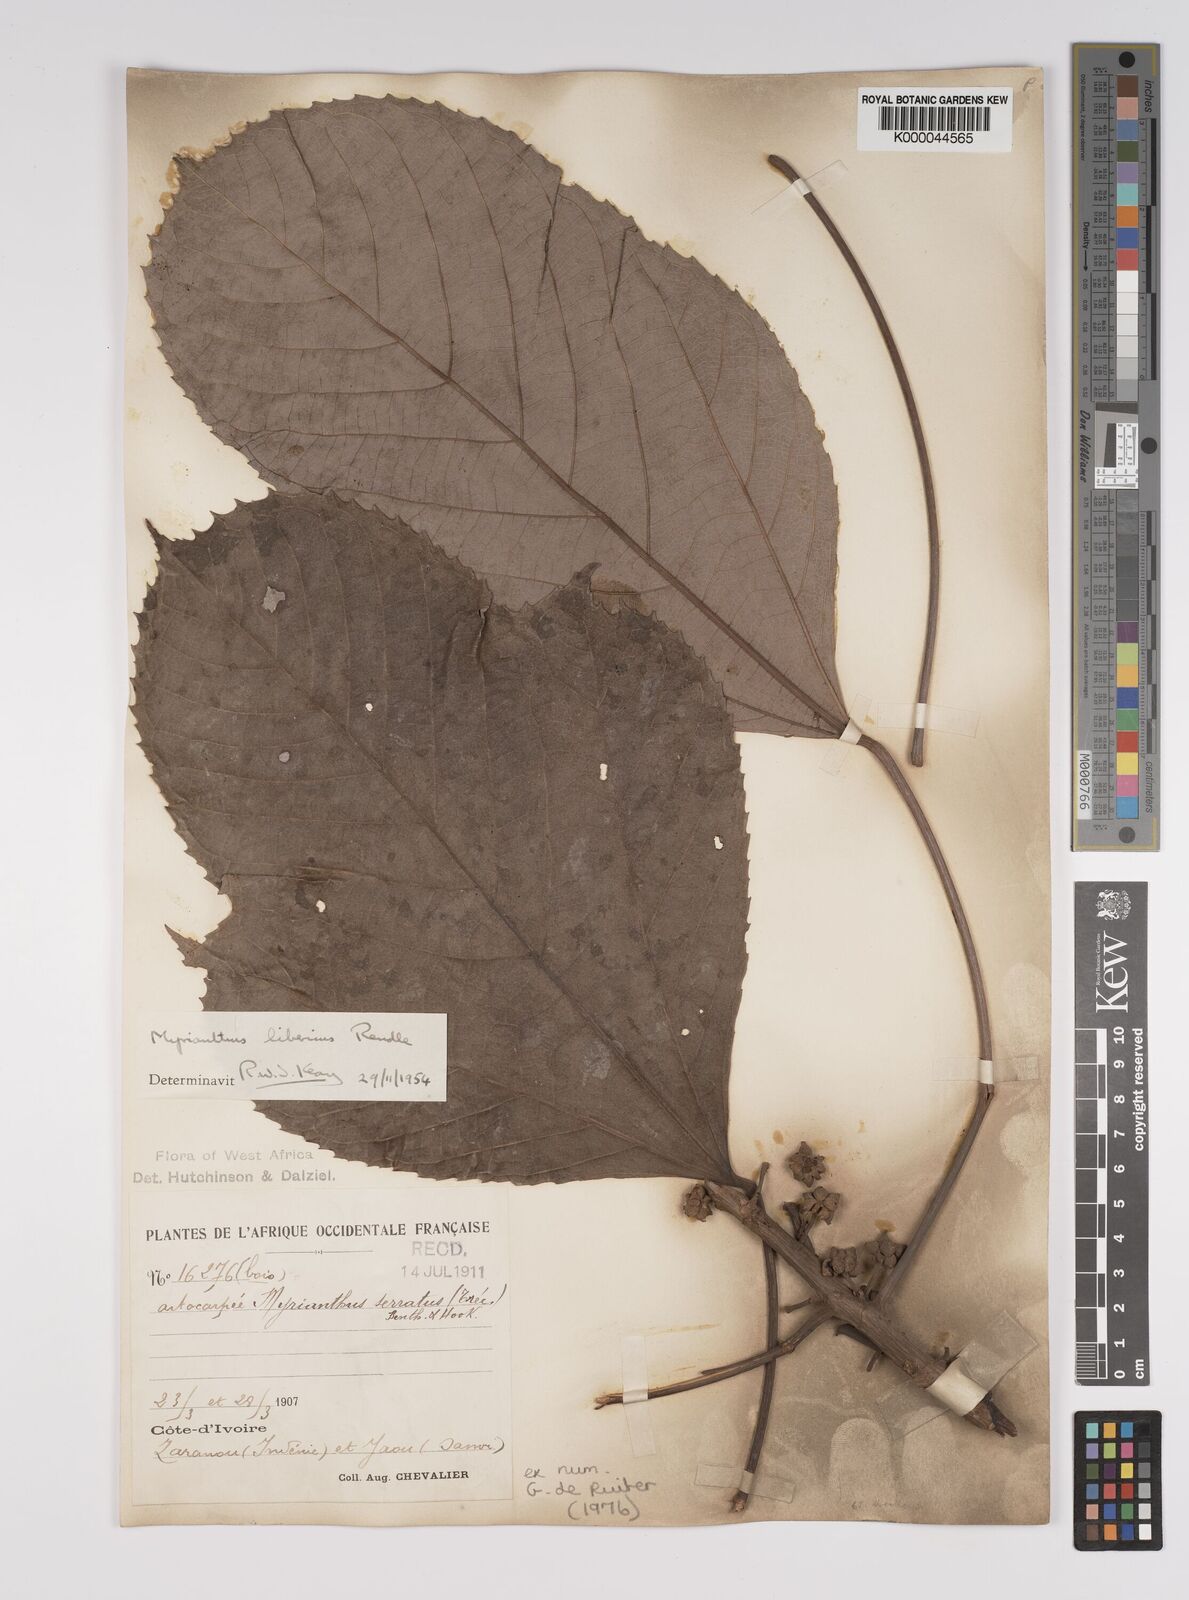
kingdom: Plantae
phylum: Tracheophyta
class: Magnoliopsida
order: Rosales
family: Urticaceae
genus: Myrianthus
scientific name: Myrianthus libericus
